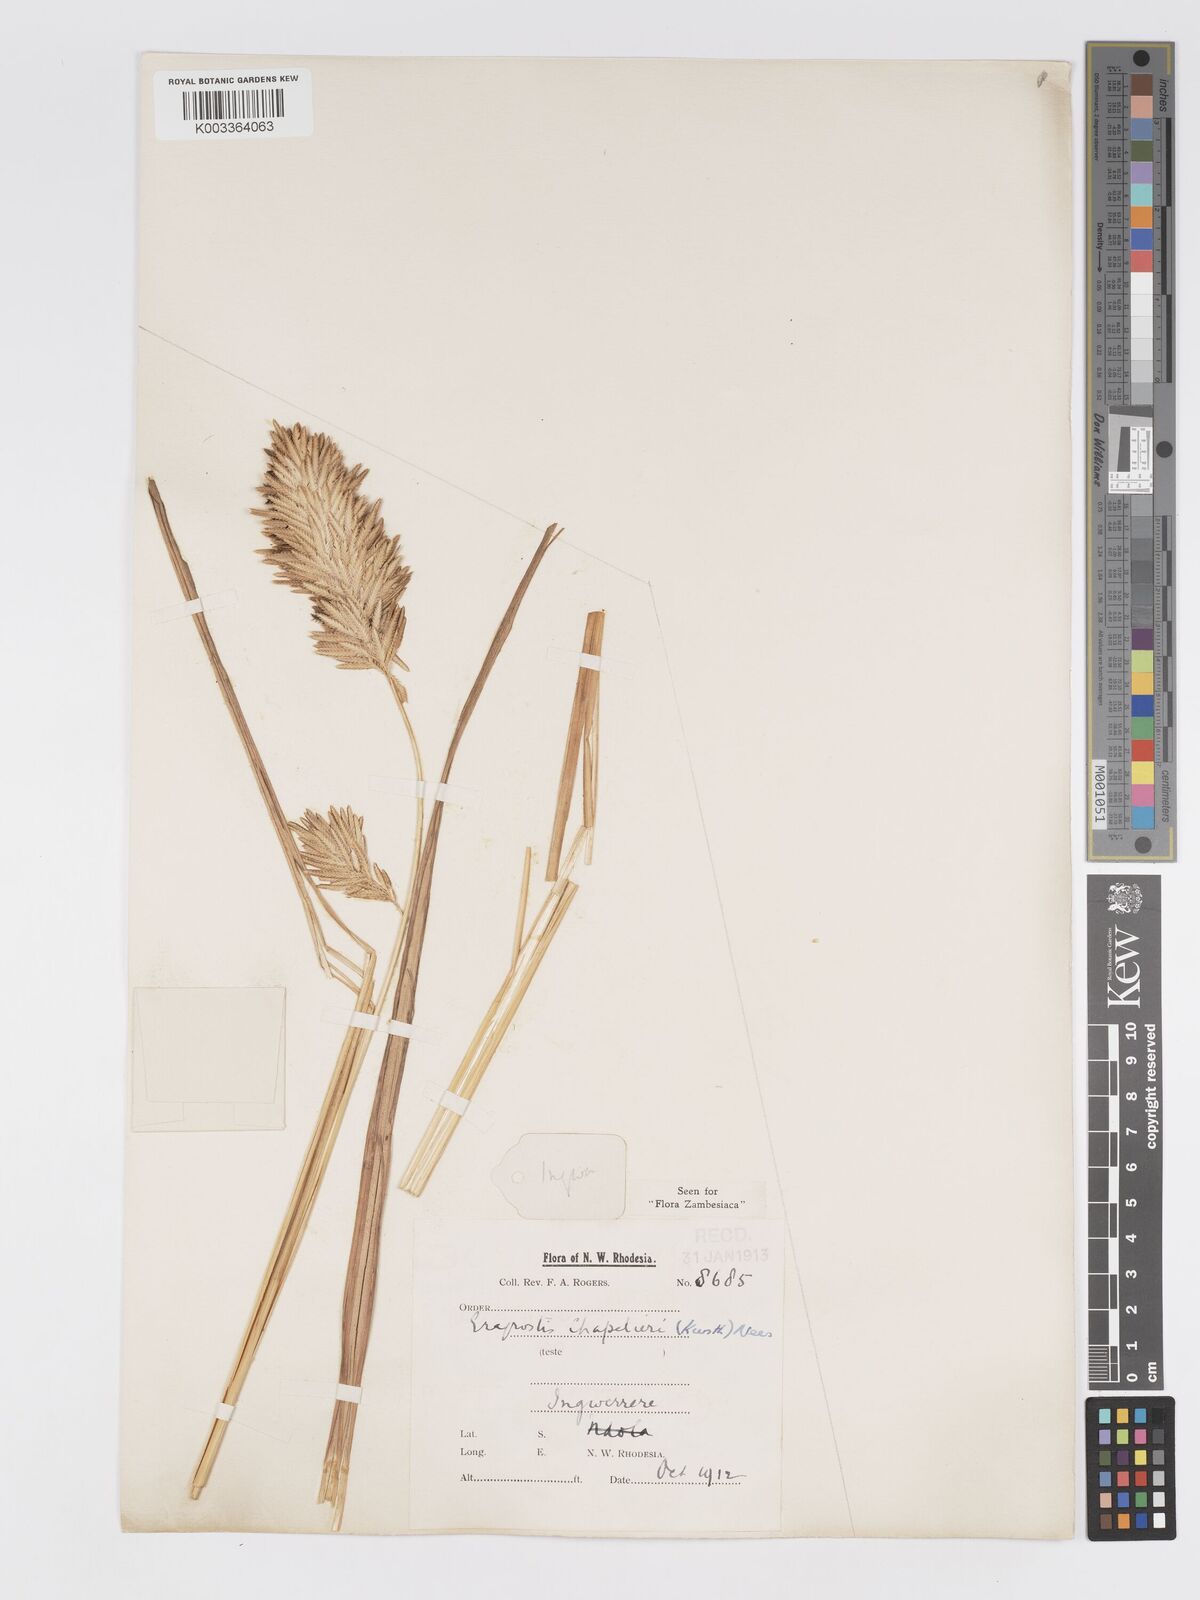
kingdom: Plantae
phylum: Tracheophyta
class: Liliopsida
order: Poales
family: Poaceae
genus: Eragrostis
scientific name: Eragrostis chapelieri
